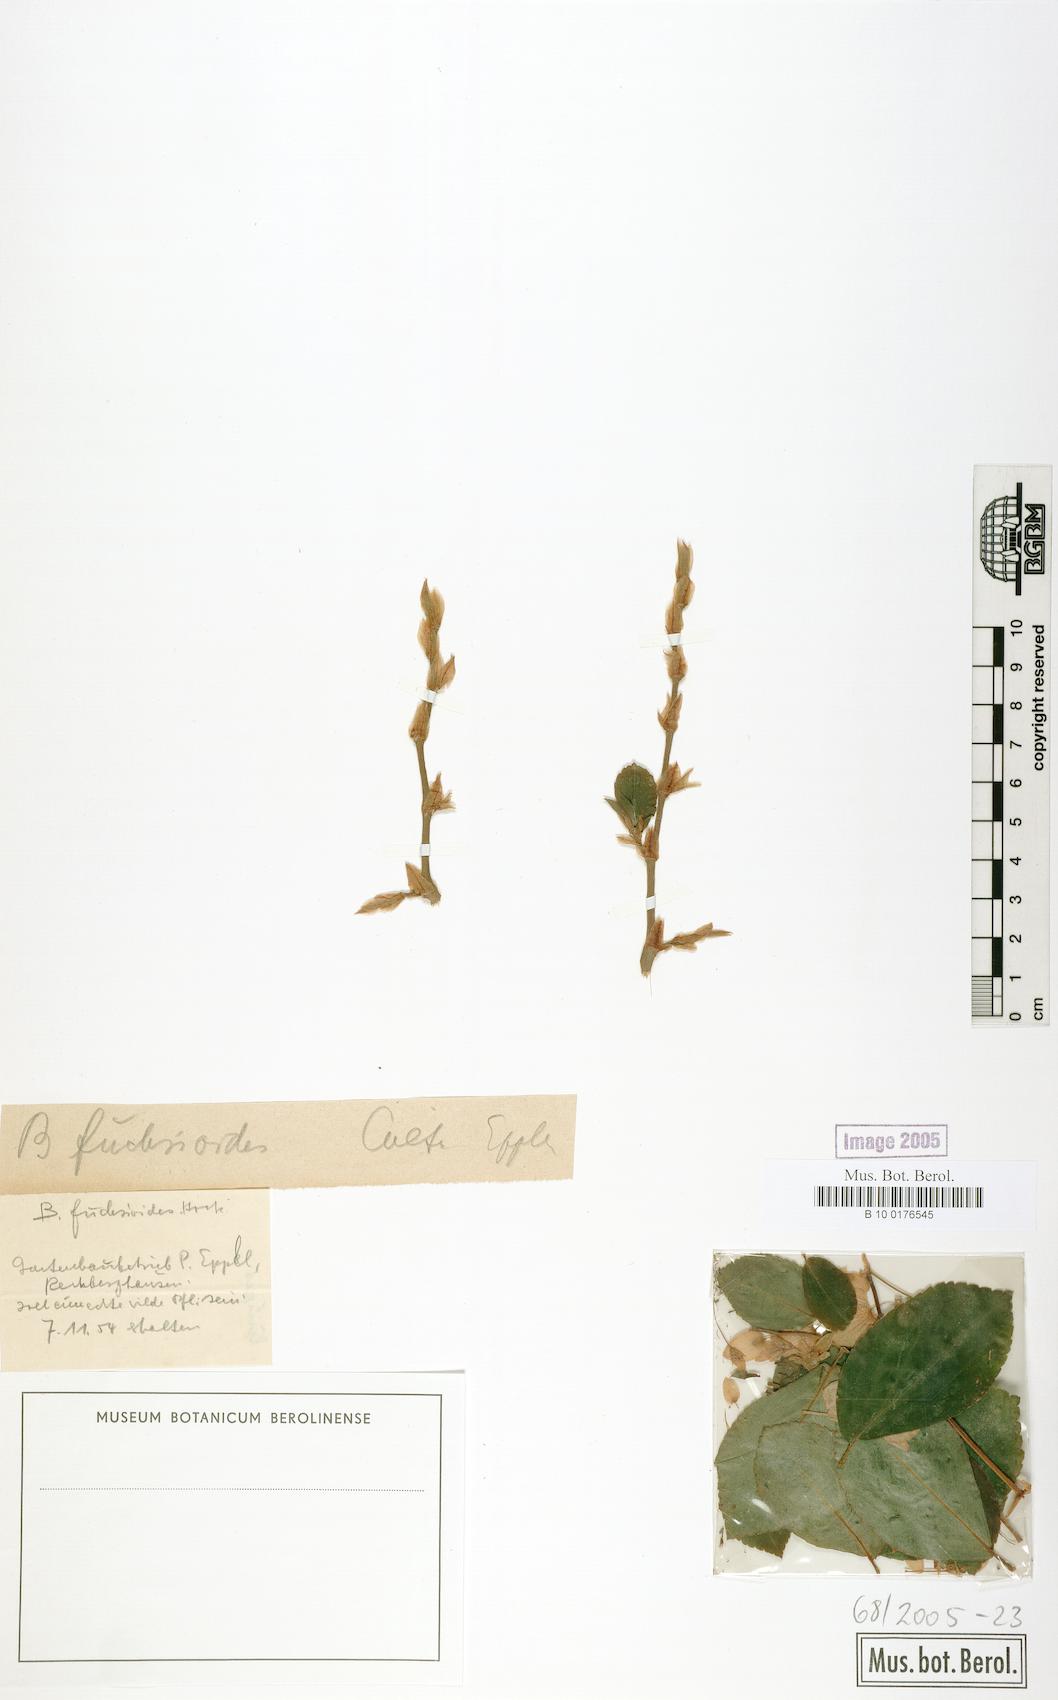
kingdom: Plantae
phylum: Tracheophyta
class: Magnoliopsida
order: Cucurbitales
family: Begoniaceae
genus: Begonia
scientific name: Begonia fuchsioides
